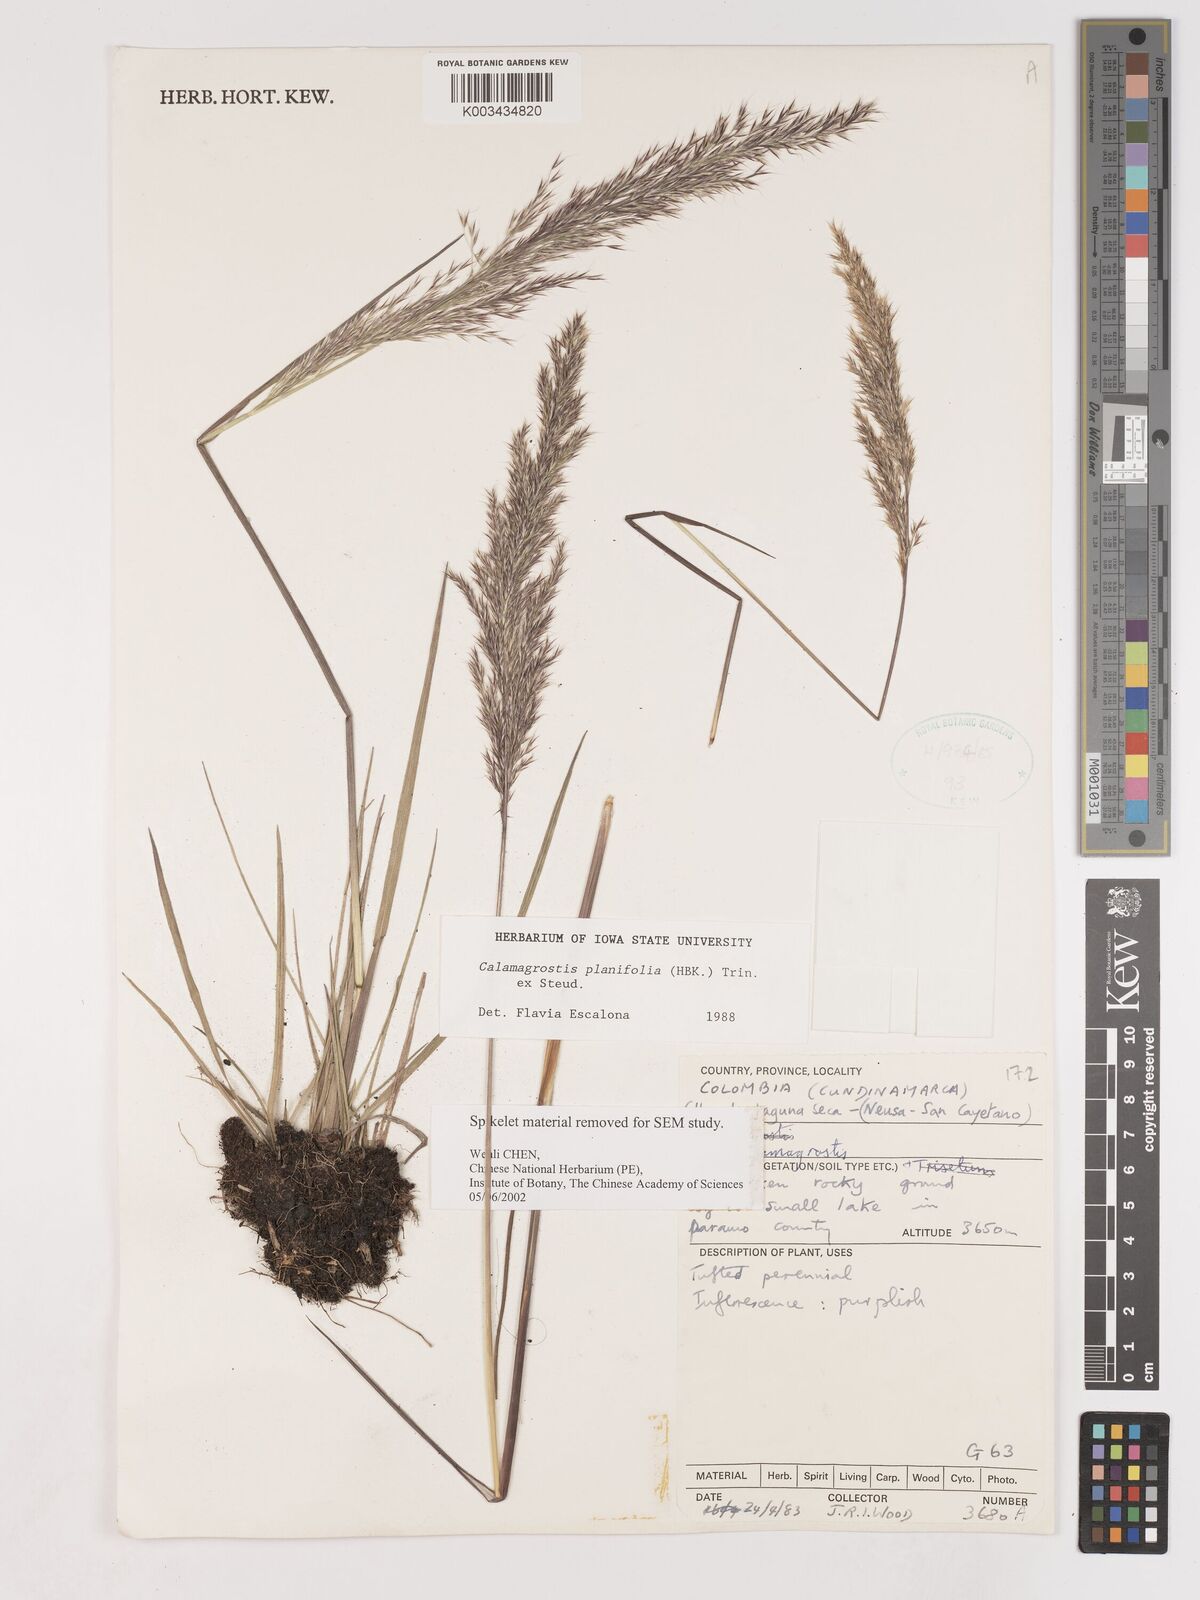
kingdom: Plantae
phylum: Tracheophyta
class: Liliopsida
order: Poales
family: Poaceae
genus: Peyritschia
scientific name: Peyritschia planifolia
